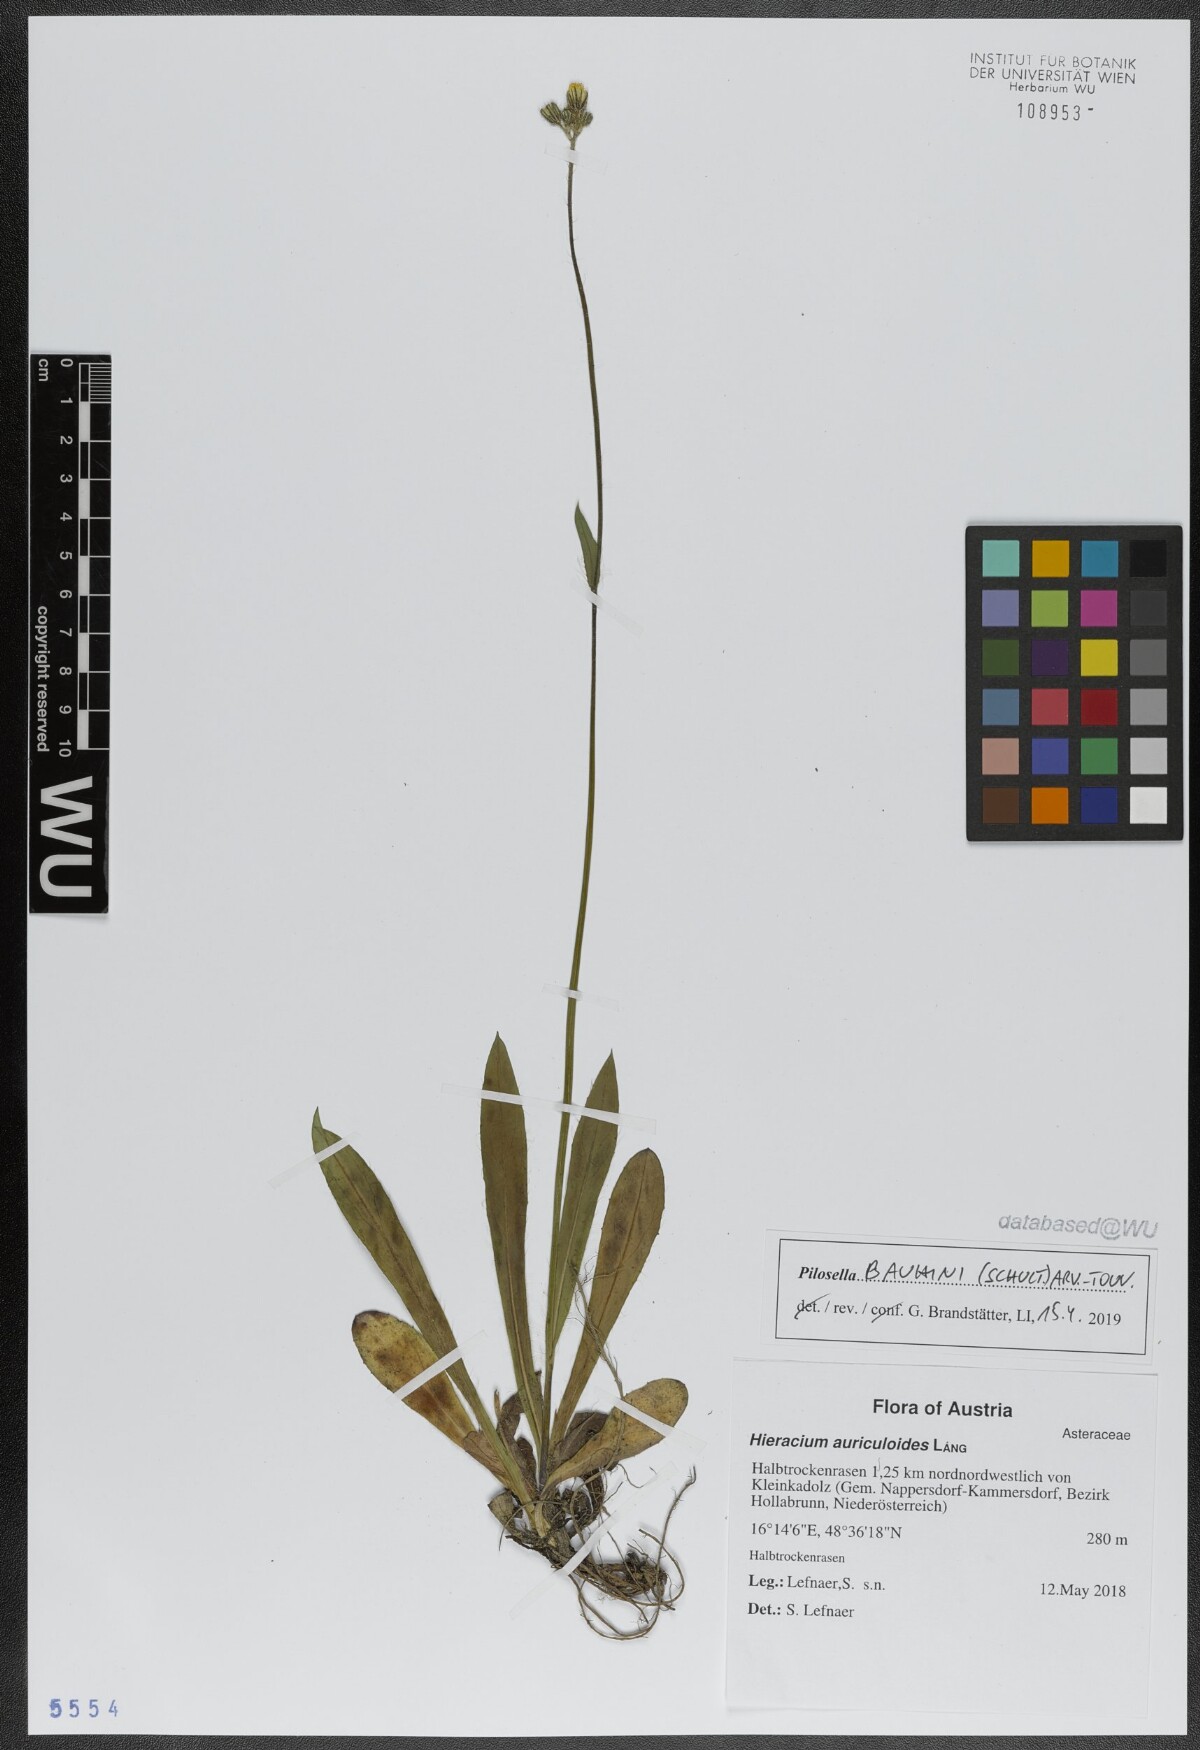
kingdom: Plantae
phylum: Tracheophyta
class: Magnoliopsida
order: Asterales
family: Asteraceae
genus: Pilosella
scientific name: Pilosella bauhini
